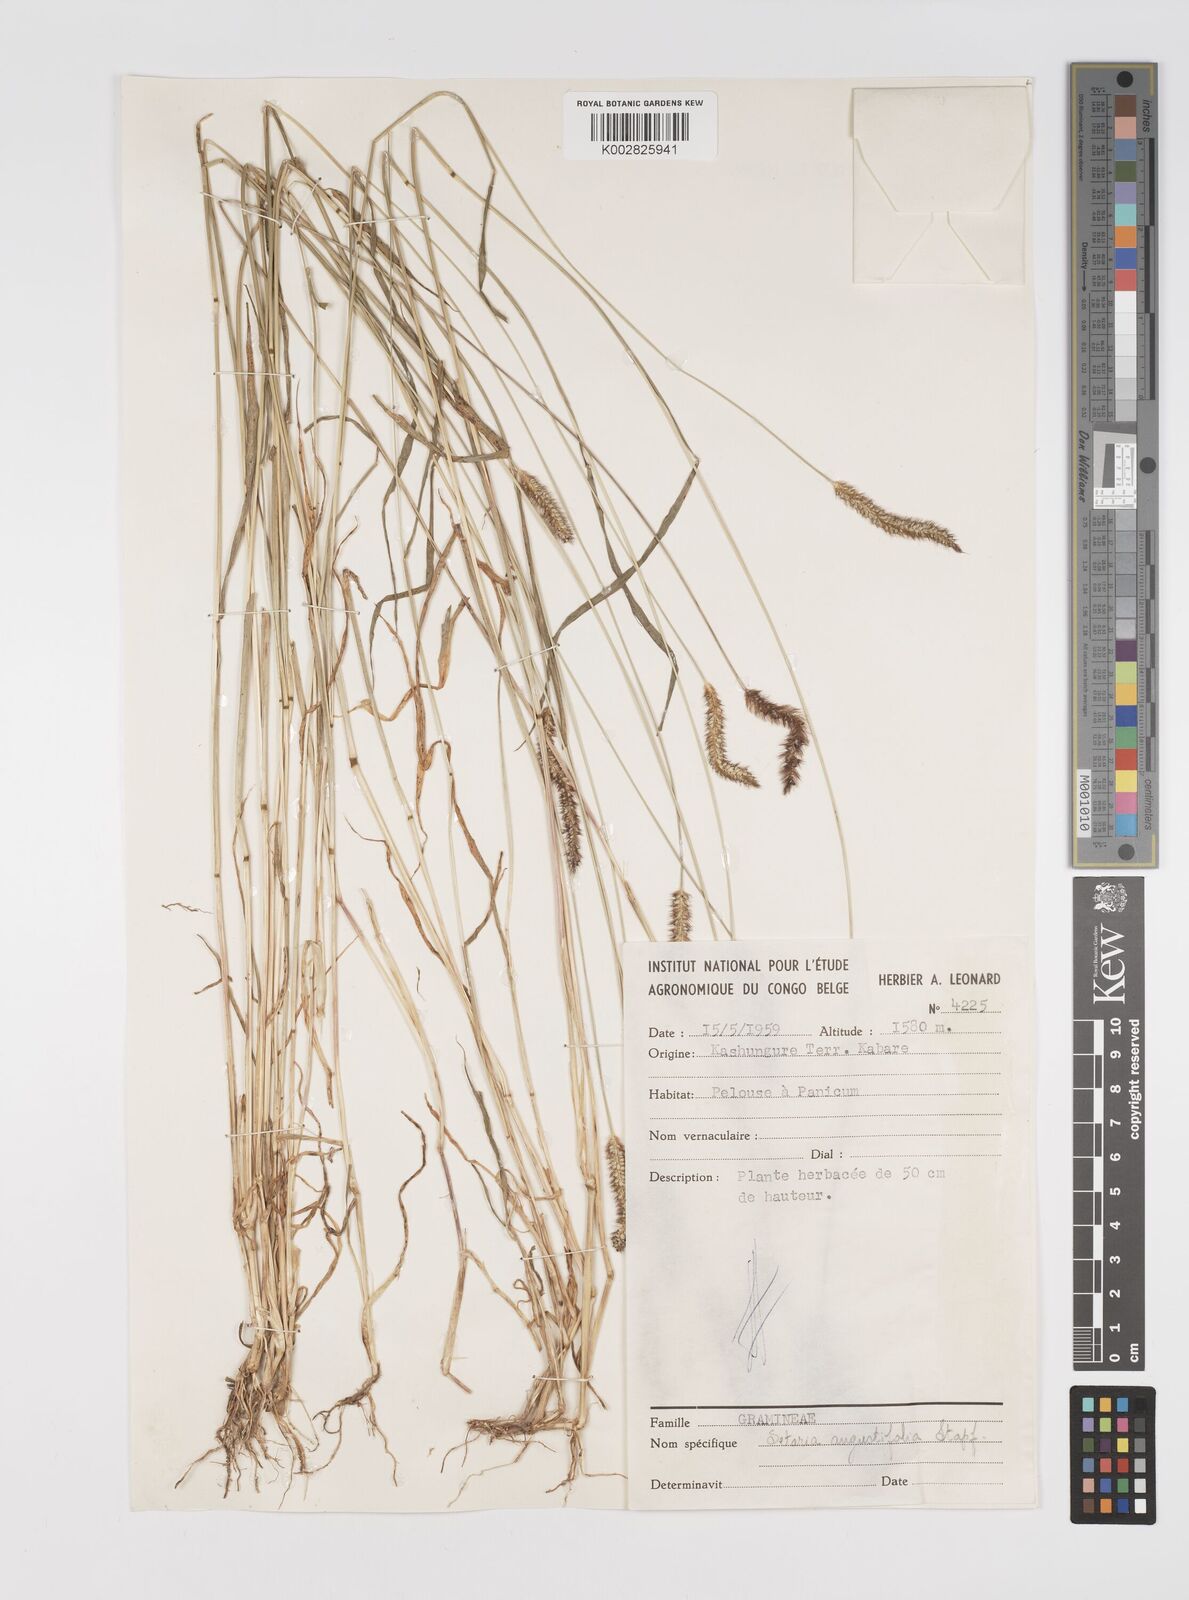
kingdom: Plantae
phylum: Tracheophyta
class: Liliopsida
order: Poales
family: Poaceae
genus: Setaria
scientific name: Setaria pumila
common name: Yellow bristle-grass
